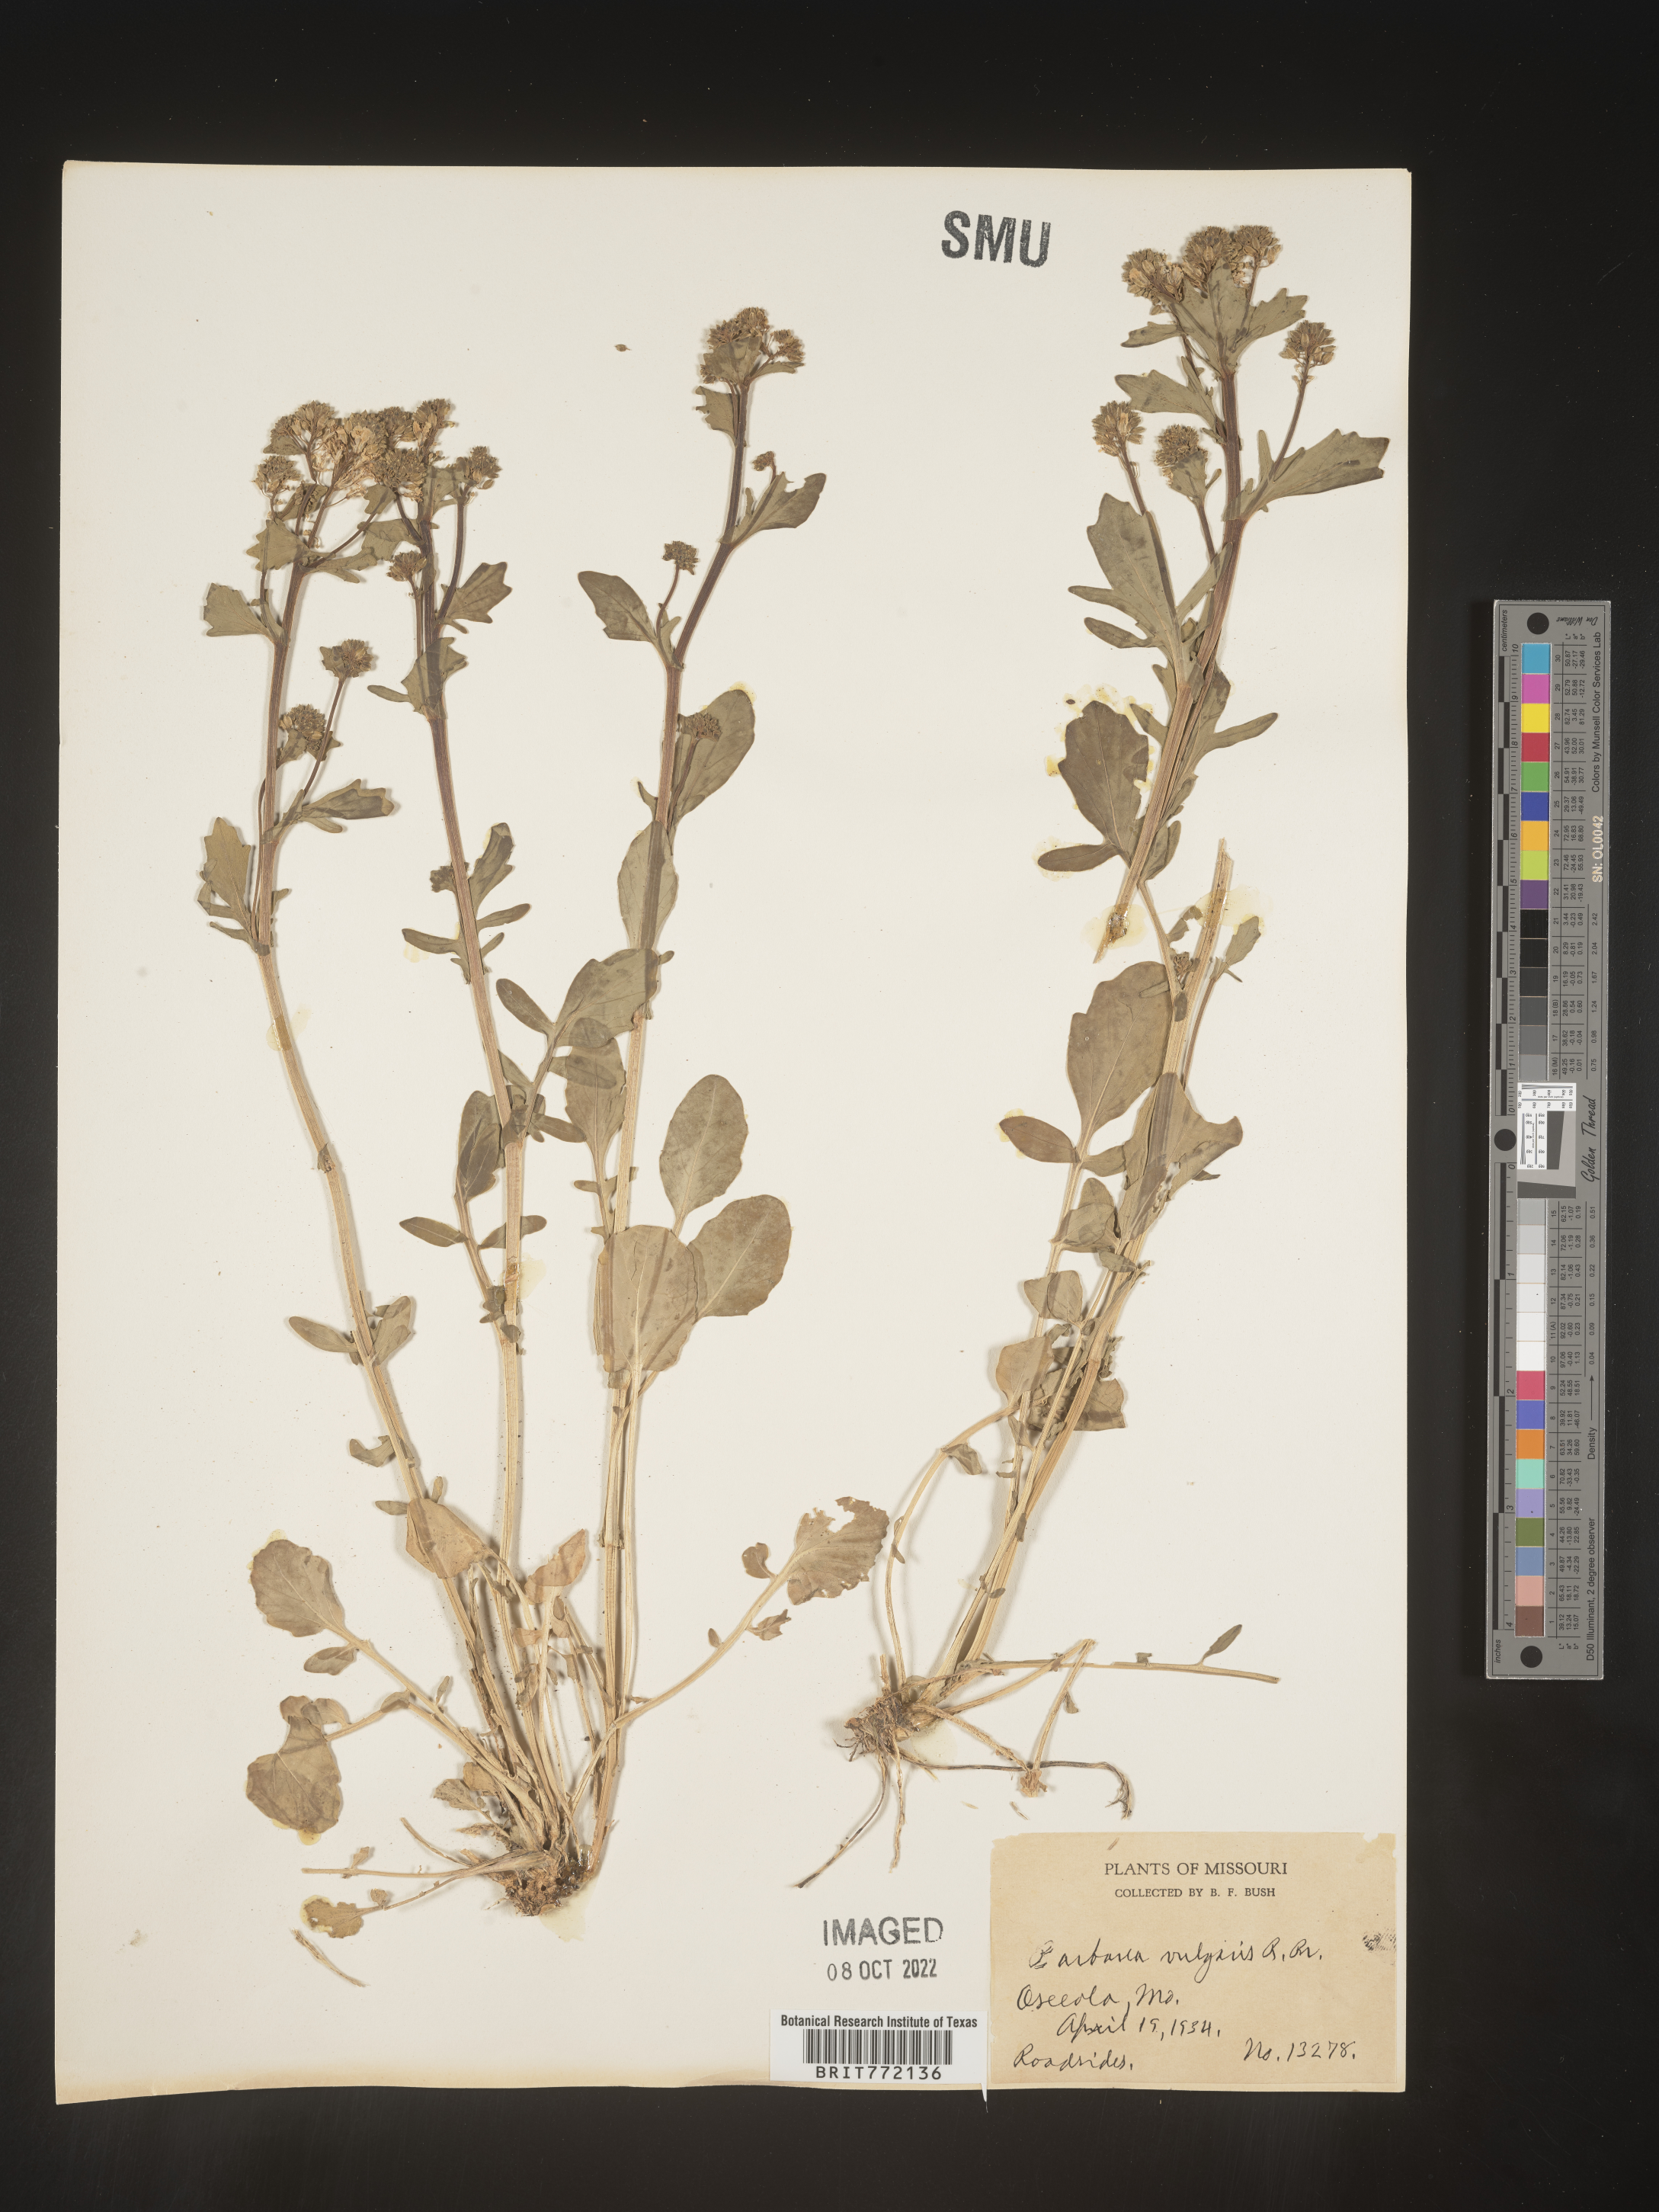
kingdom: Plantae
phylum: Tracheophyta
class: Magnoliopsida
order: Brassicales
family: Brassicaceae
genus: Barbarea
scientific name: Barbarea vulgaris
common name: Cressy-greens
